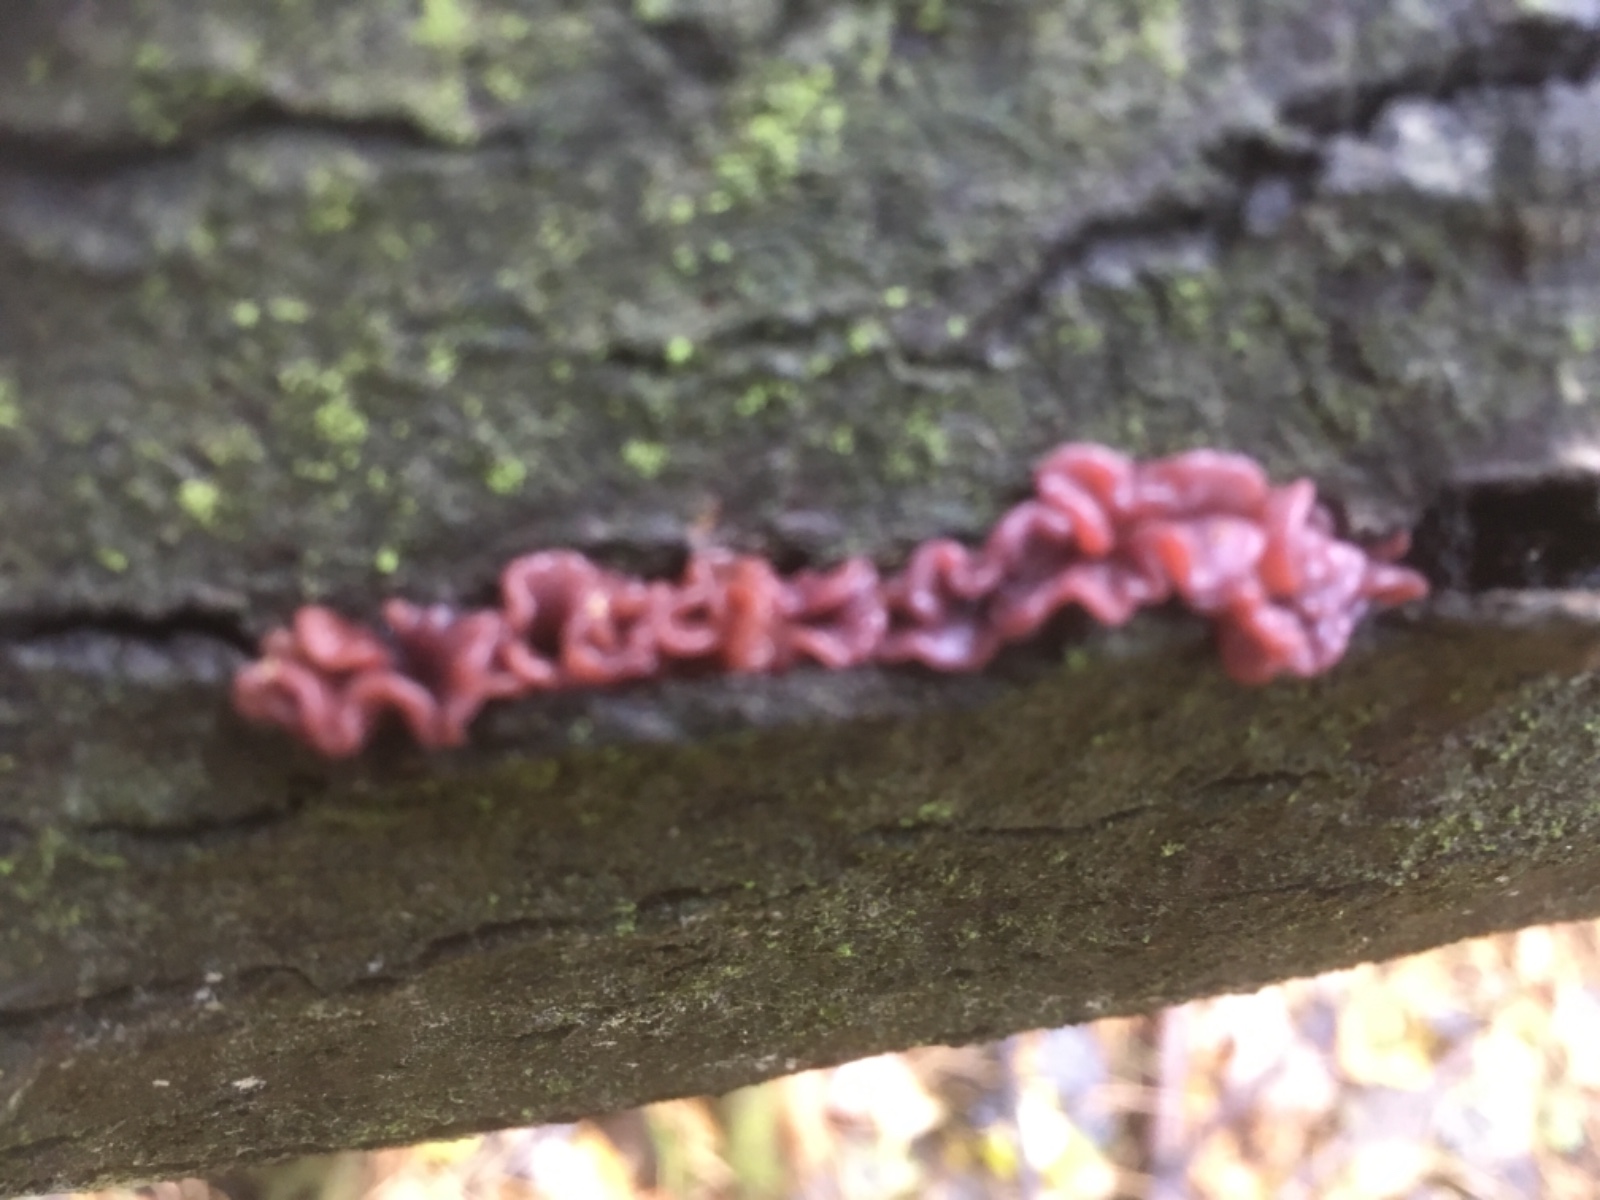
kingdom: Fungi
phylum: Ascomycota
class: Leotiomycetes
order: Helotiales
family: Gelatinodiscaceae
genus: Ascocoryne
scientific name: Ascocoryne sarcoides
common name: rødlilla sejskive
